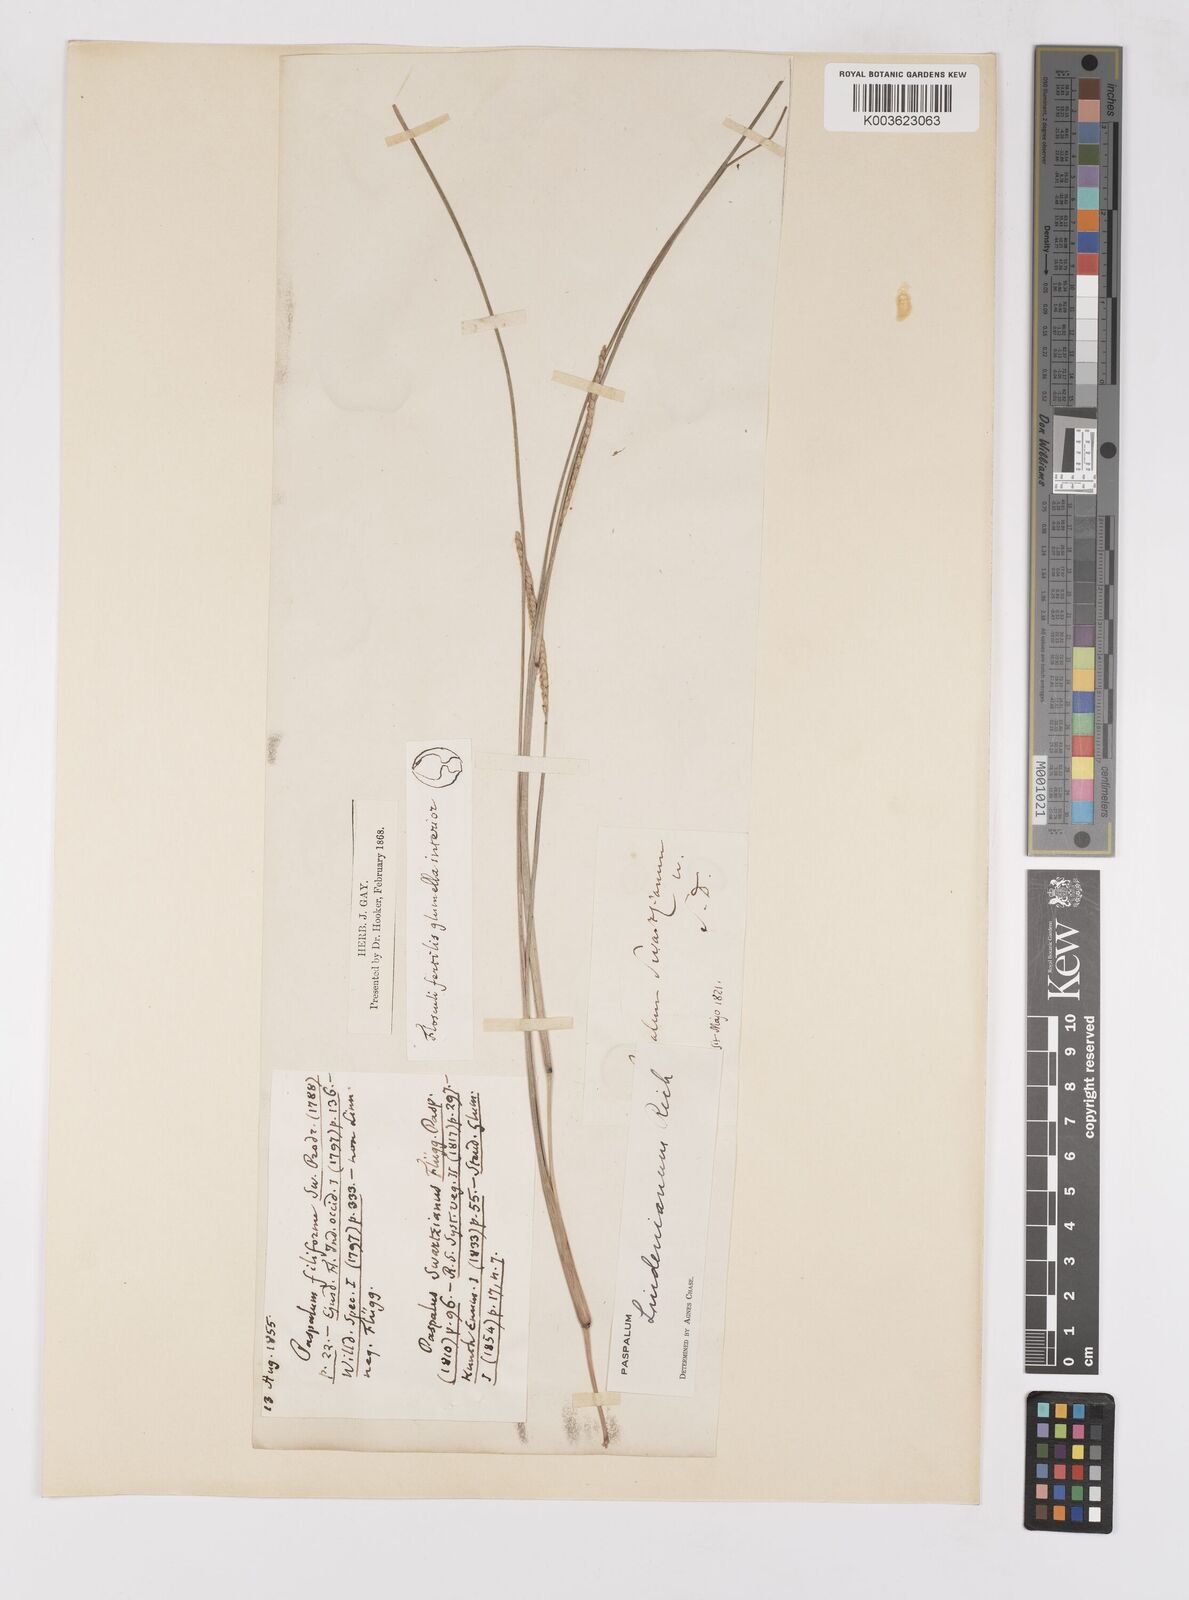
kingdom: Plantae
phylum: Tracheophyta
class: Liliopsida
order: Poales
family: Poaceae
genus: Paspalum
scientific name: Paspalum lindenianum
